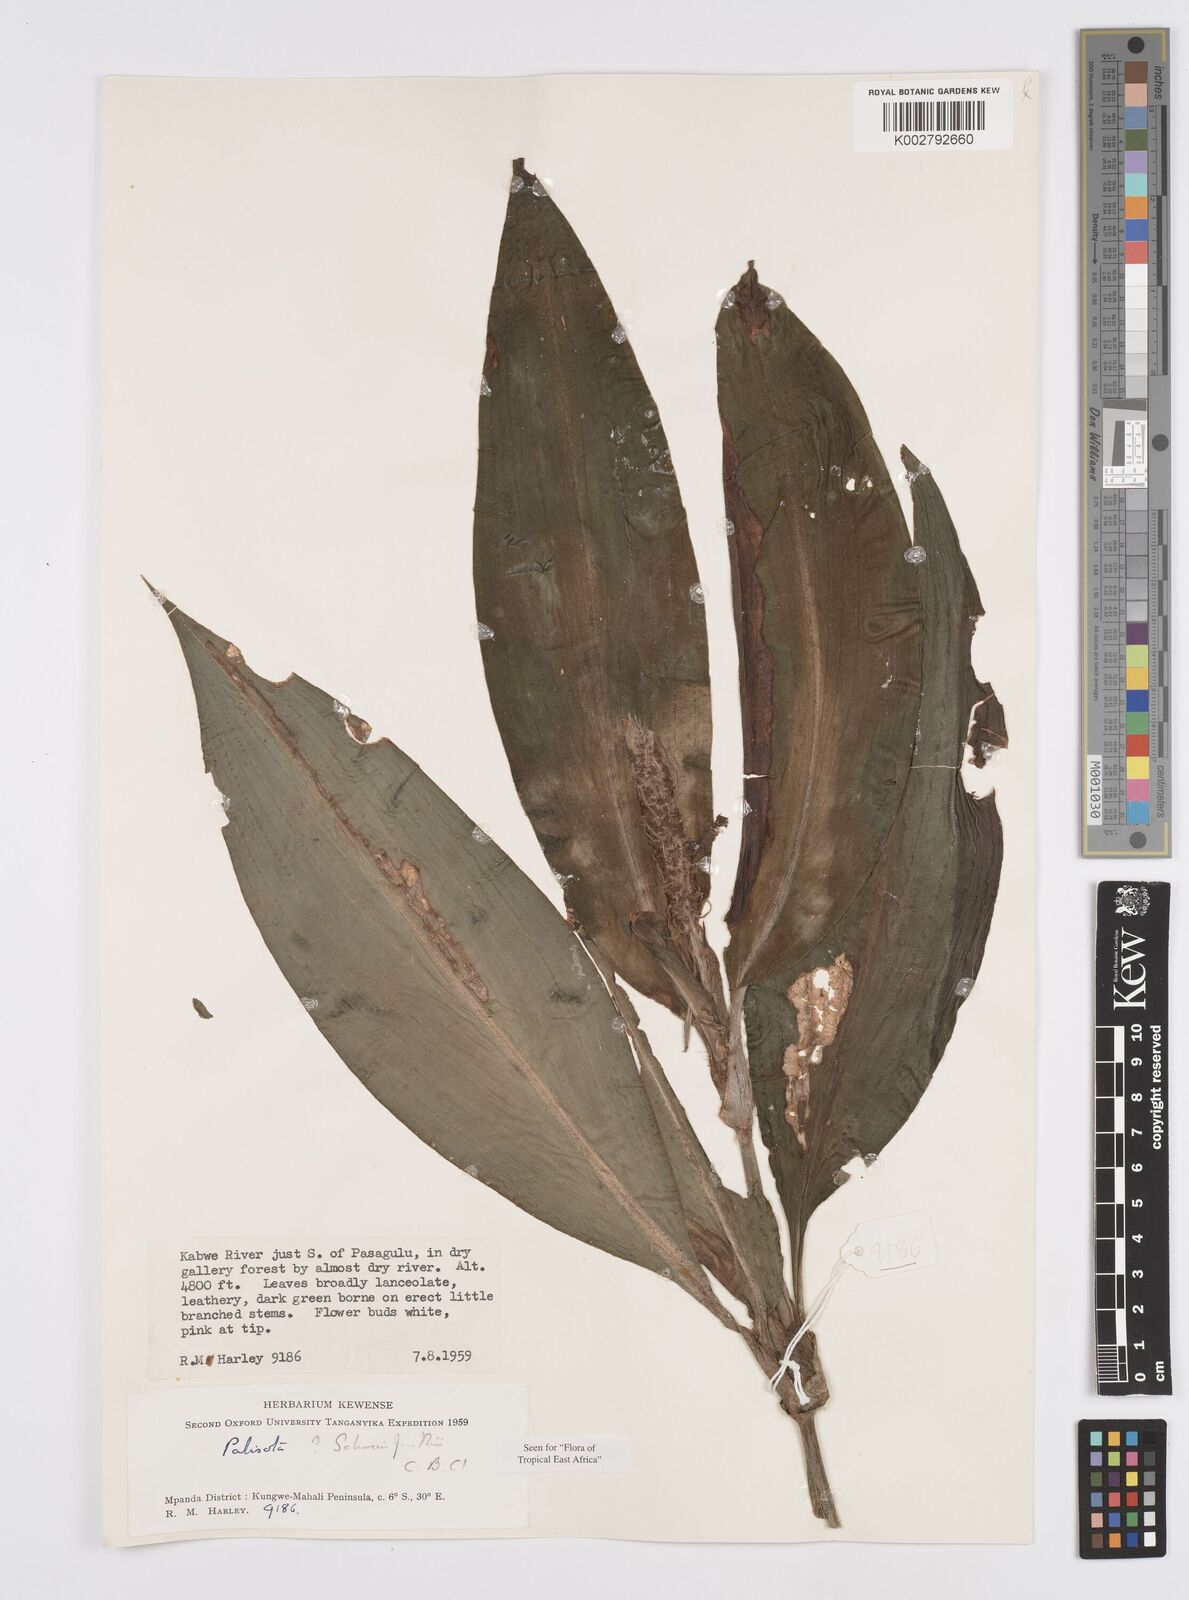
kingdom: Plantae
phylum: Tracheophyta
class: Liliopsida
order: Commelinales
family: Commelinaceae
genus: Palisota
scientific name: Palisota schweinfurthii
